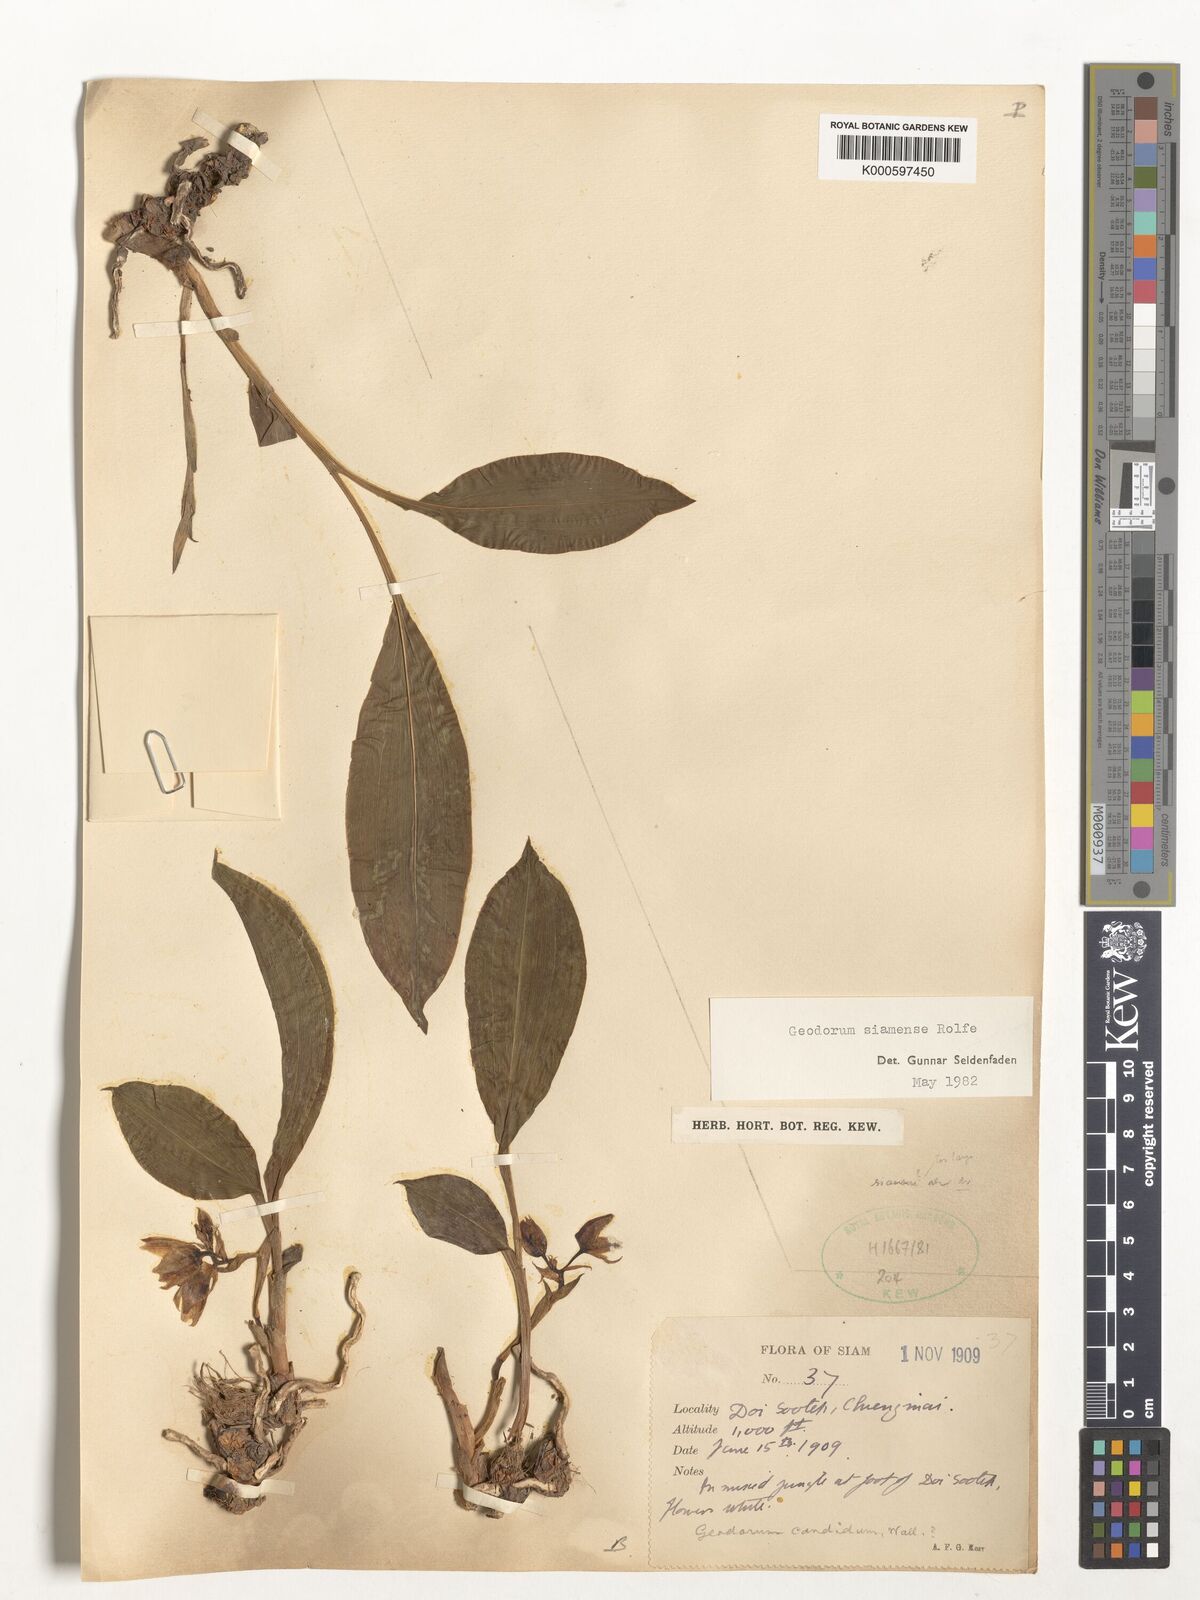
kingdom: Plantae
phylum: Tracheophyta
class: Liliopsida
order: Asparagales
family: Orchidaceae
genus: Eulophia
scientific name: Eulophia exigua
